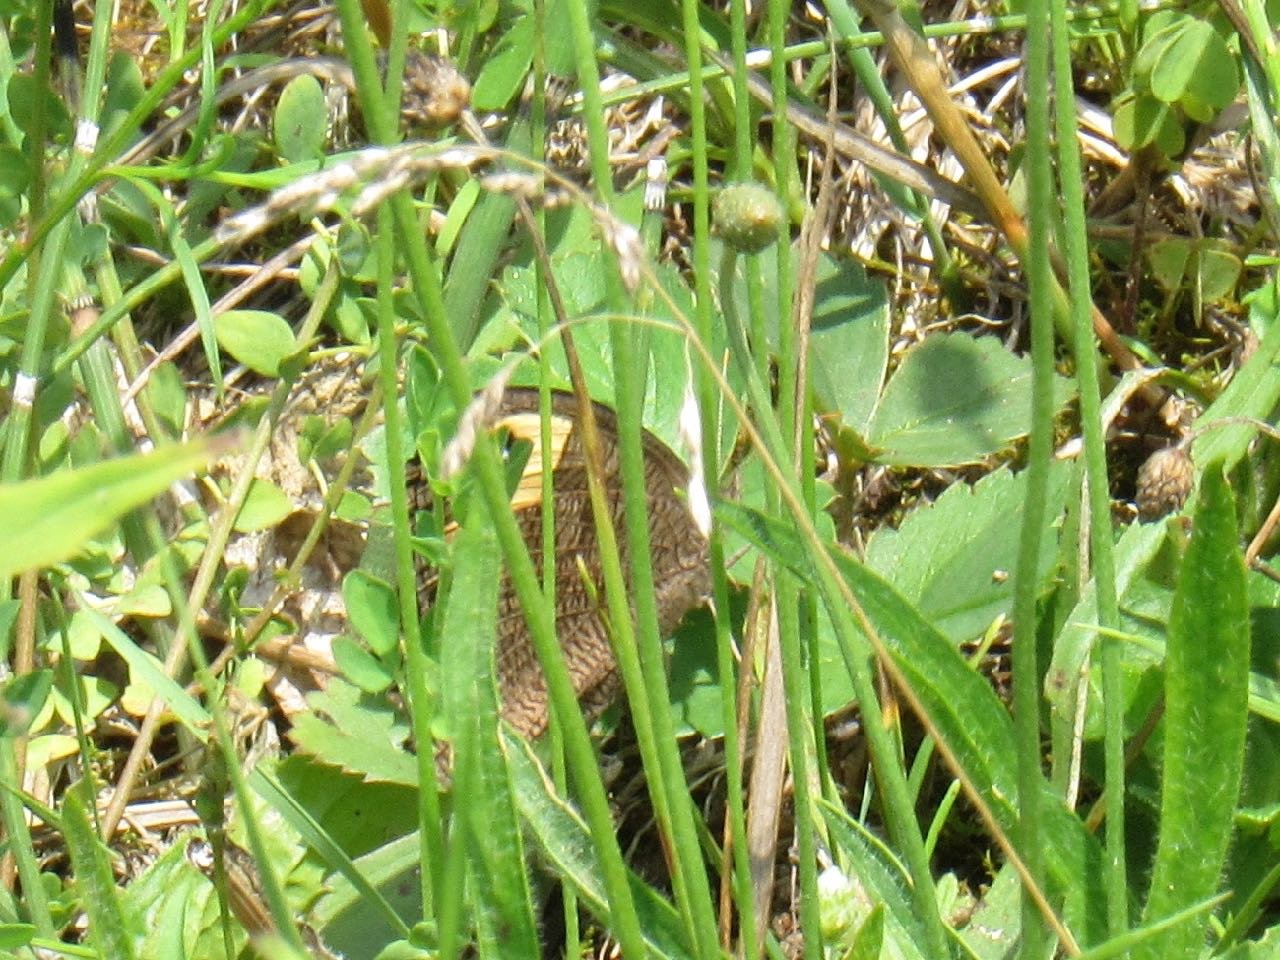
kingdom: Animalia
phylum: Arthropoda
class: Insecta
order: Lepidoptera
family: Nymphalidae
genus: Cercyonis
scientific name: Cercyonis pegala
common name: Common Wood-Nymph
